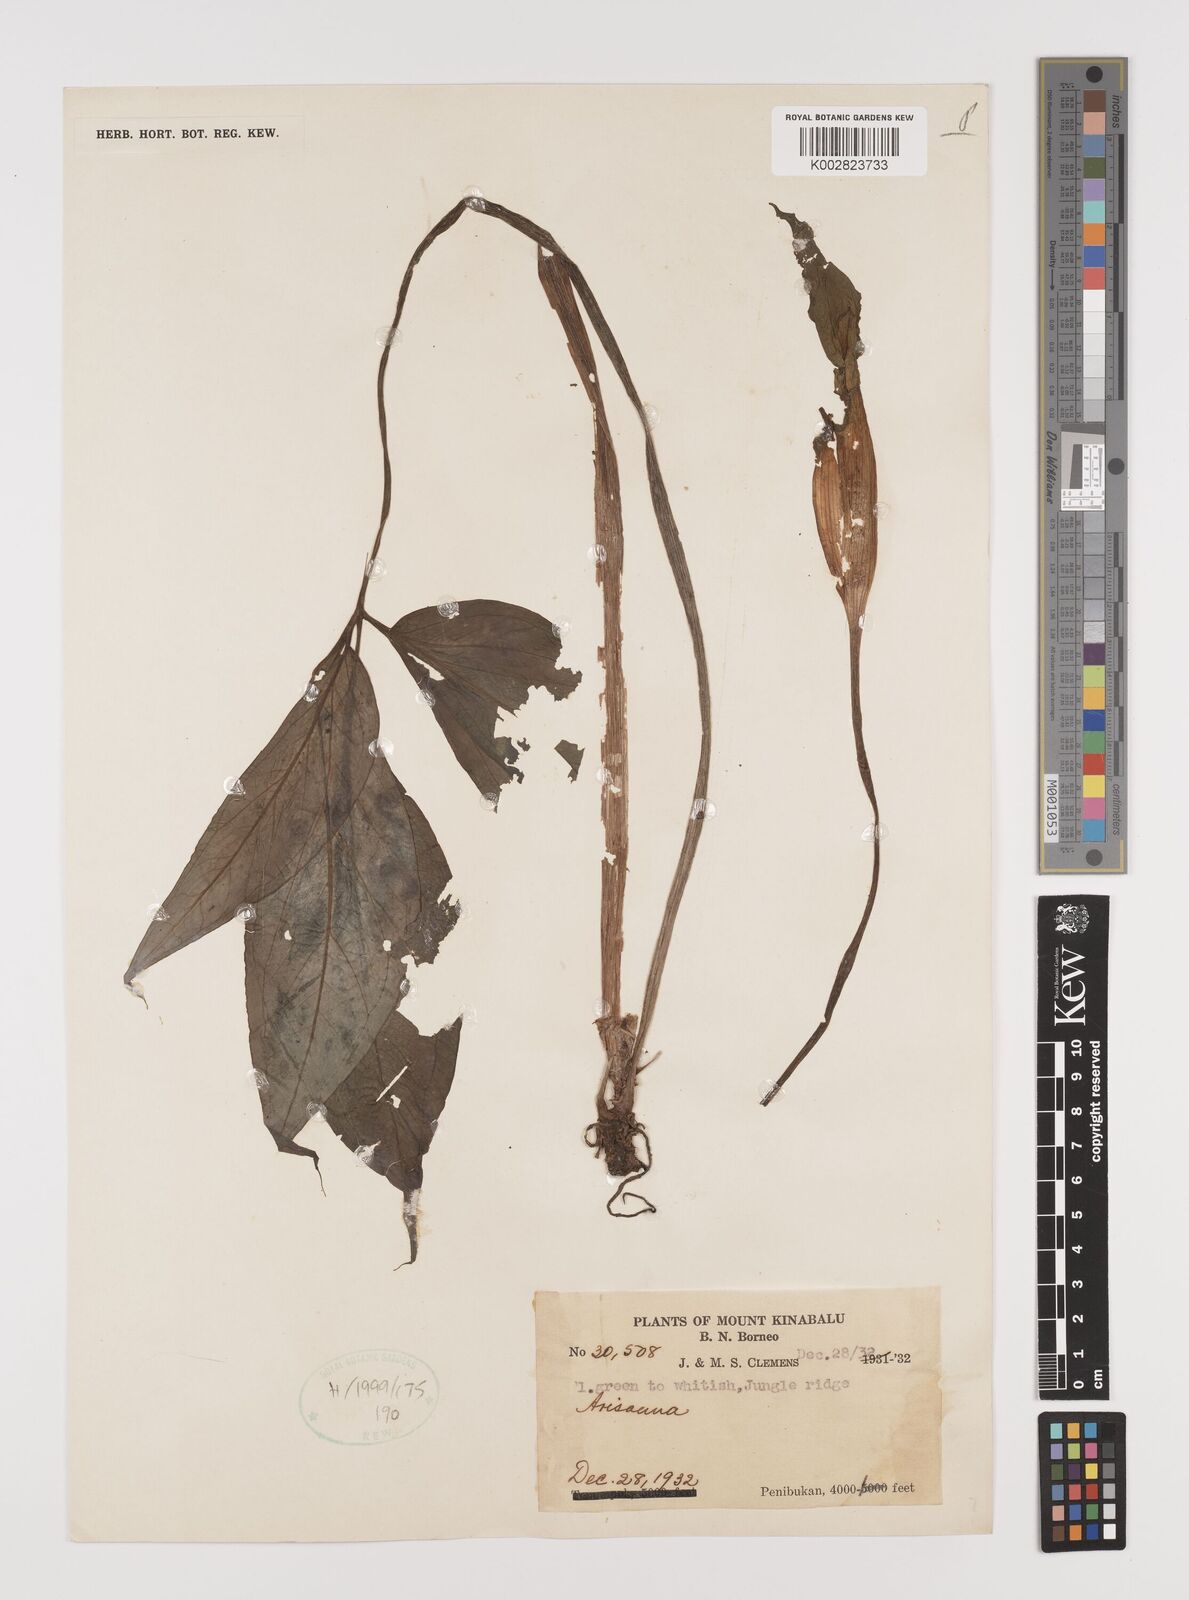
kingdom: Plantae
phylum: Tracheophyta
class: Liliopsida
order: Alismatales
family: Araceae
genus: Arisaema
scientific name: Arisaema
